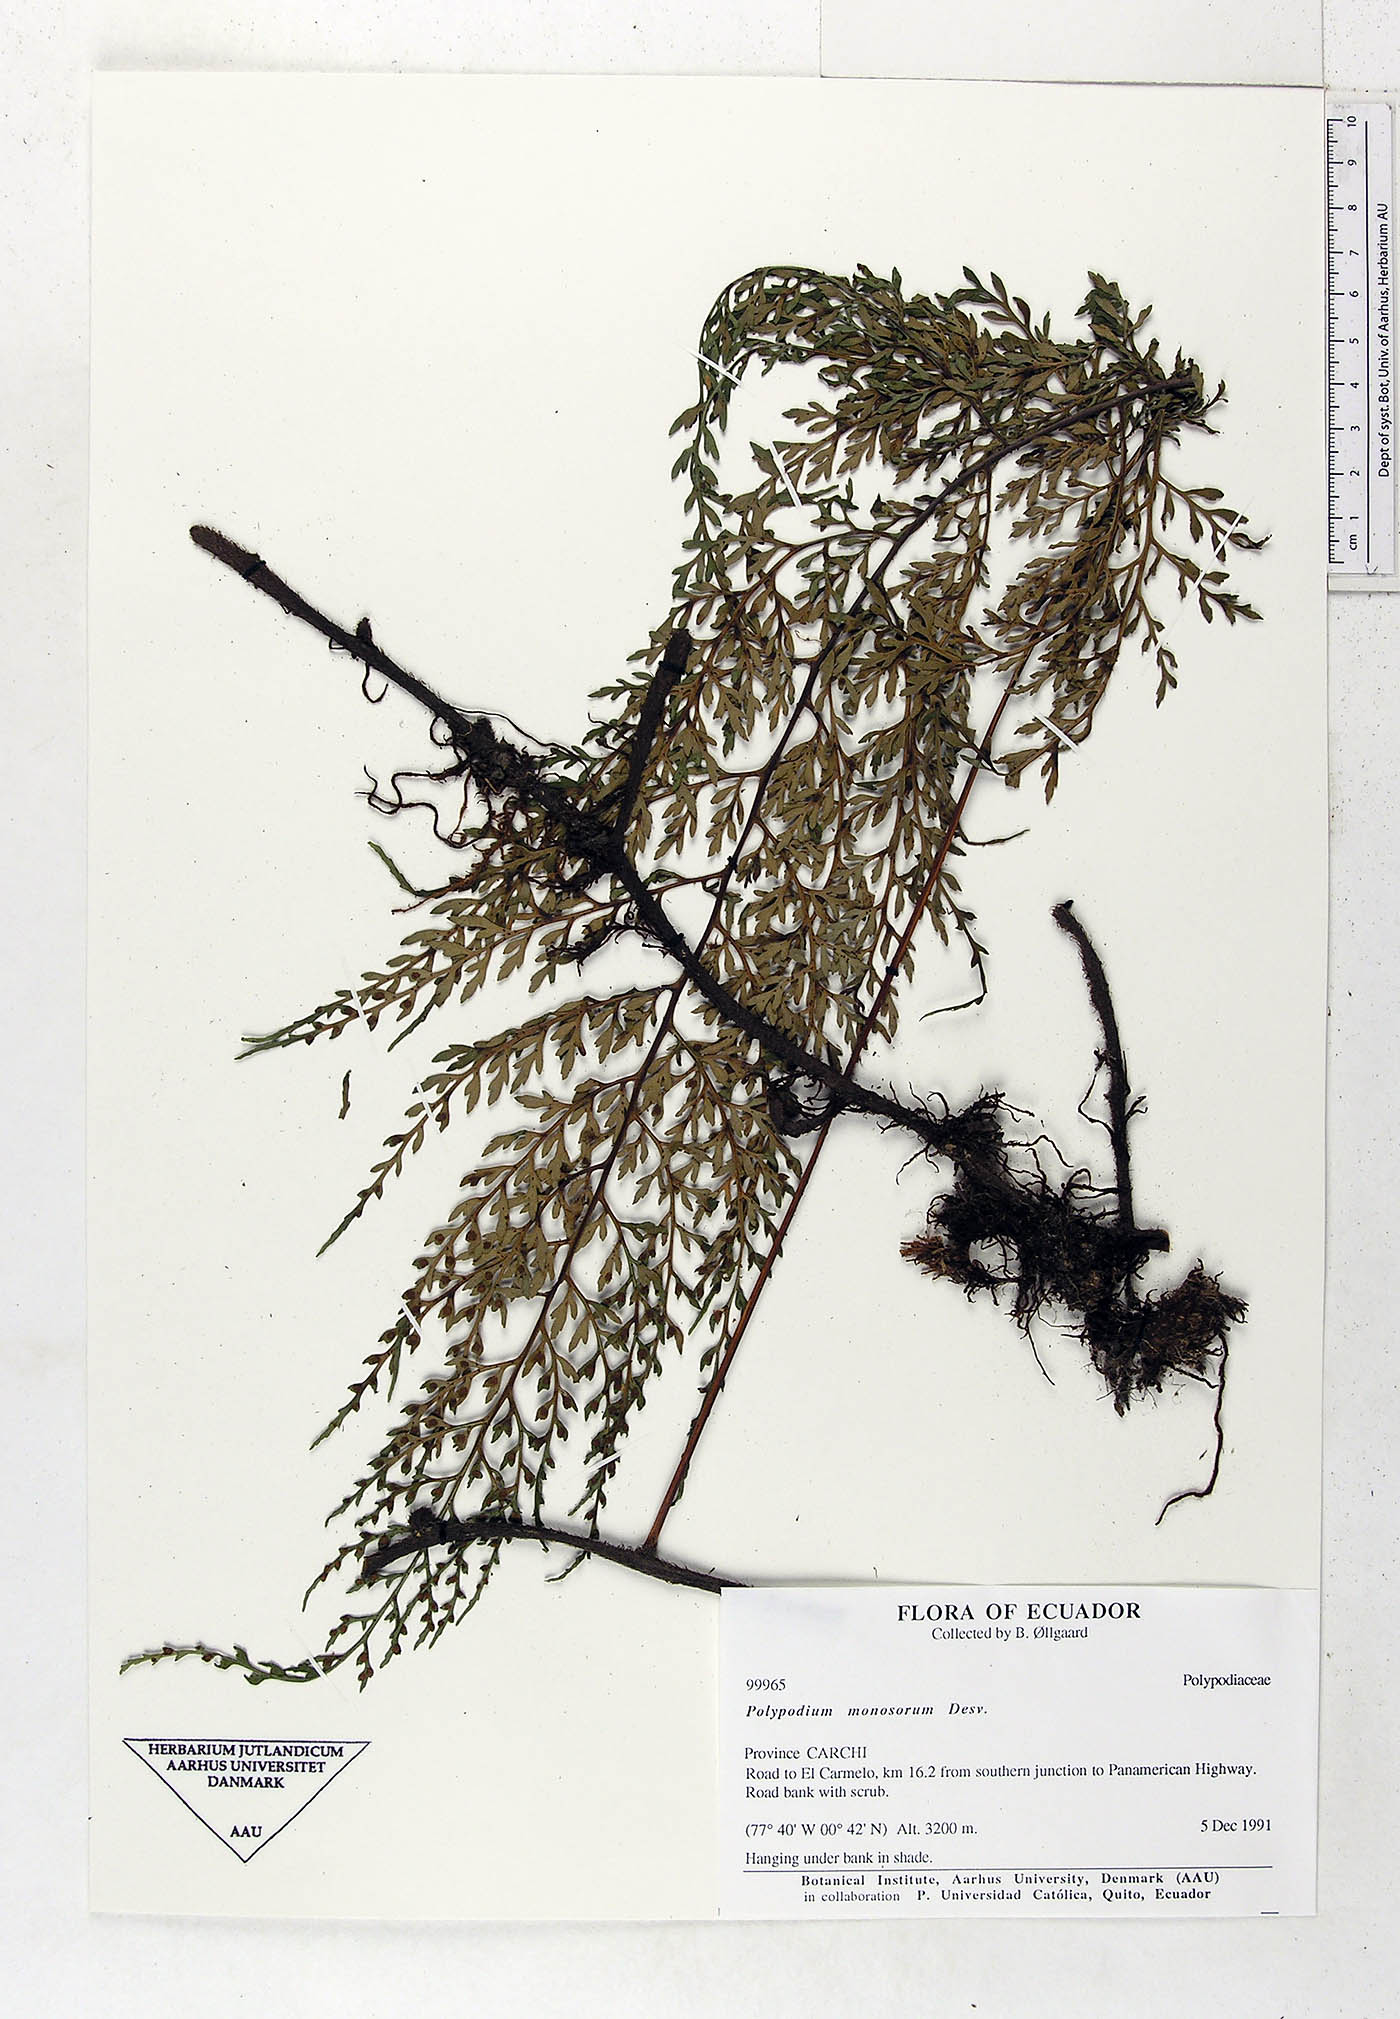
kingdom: Plantae
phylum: Tracheophyta
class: Polypodiopsida
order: Polypodiales
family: Polypodiaceae
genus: Pleopeltis
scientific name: Pleopeltis monosora
